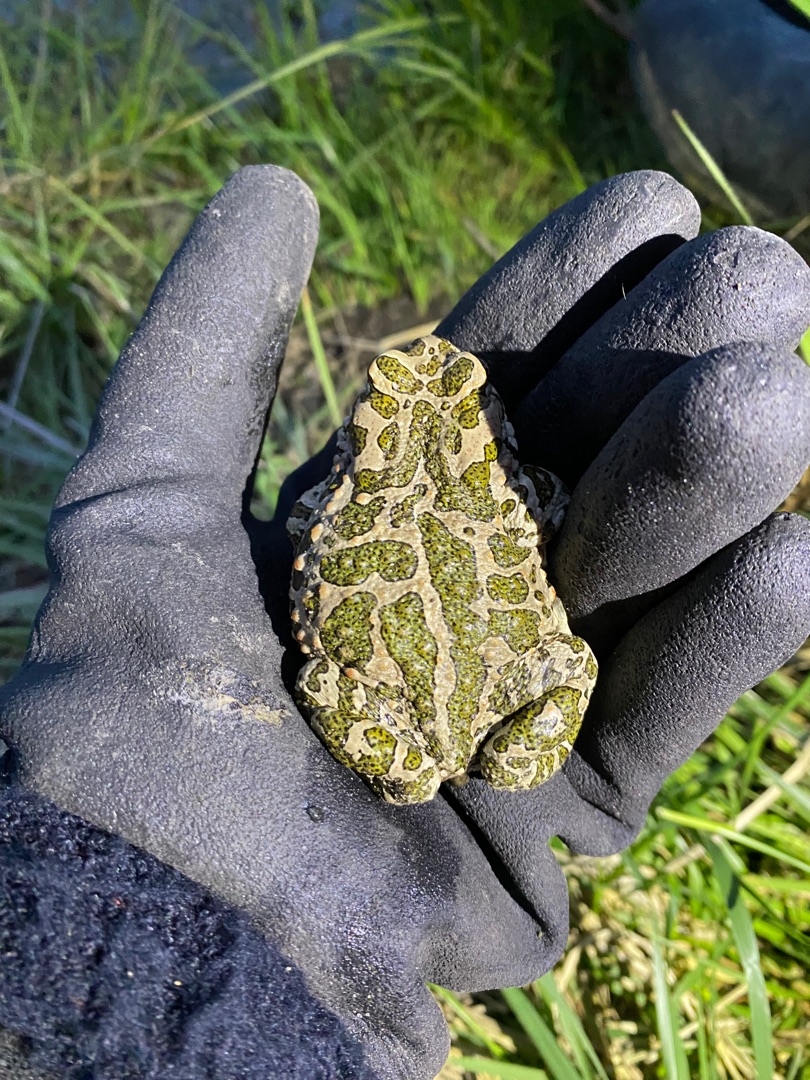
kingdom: Animalia
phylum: Chordata
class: Amphibia
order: Anura
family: Bufonidae
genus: Bufotes
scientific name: Bufotes viridis
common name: Grønbroget tudse
